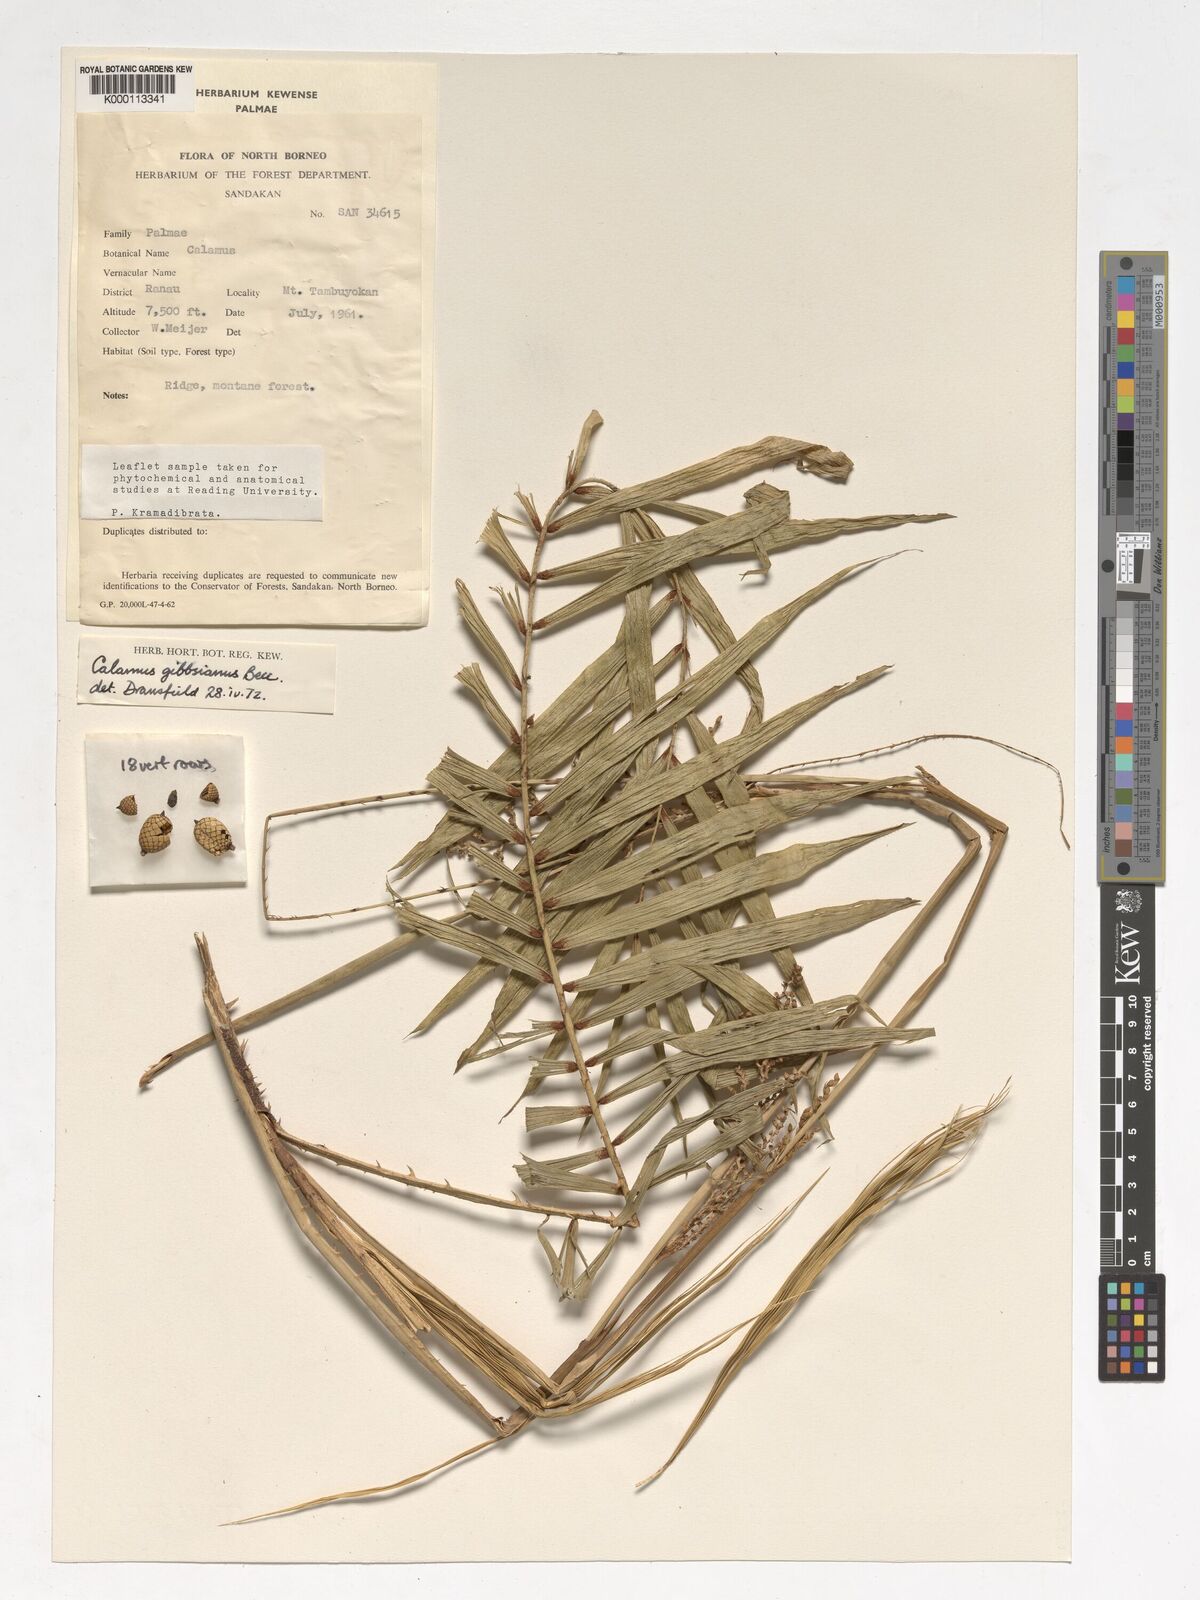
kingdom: Plantae
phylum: Tracheophyta
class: Liliopsida
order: Arecales
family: Arecaceae
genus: Calamus
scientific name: Calamus gibbsianus
